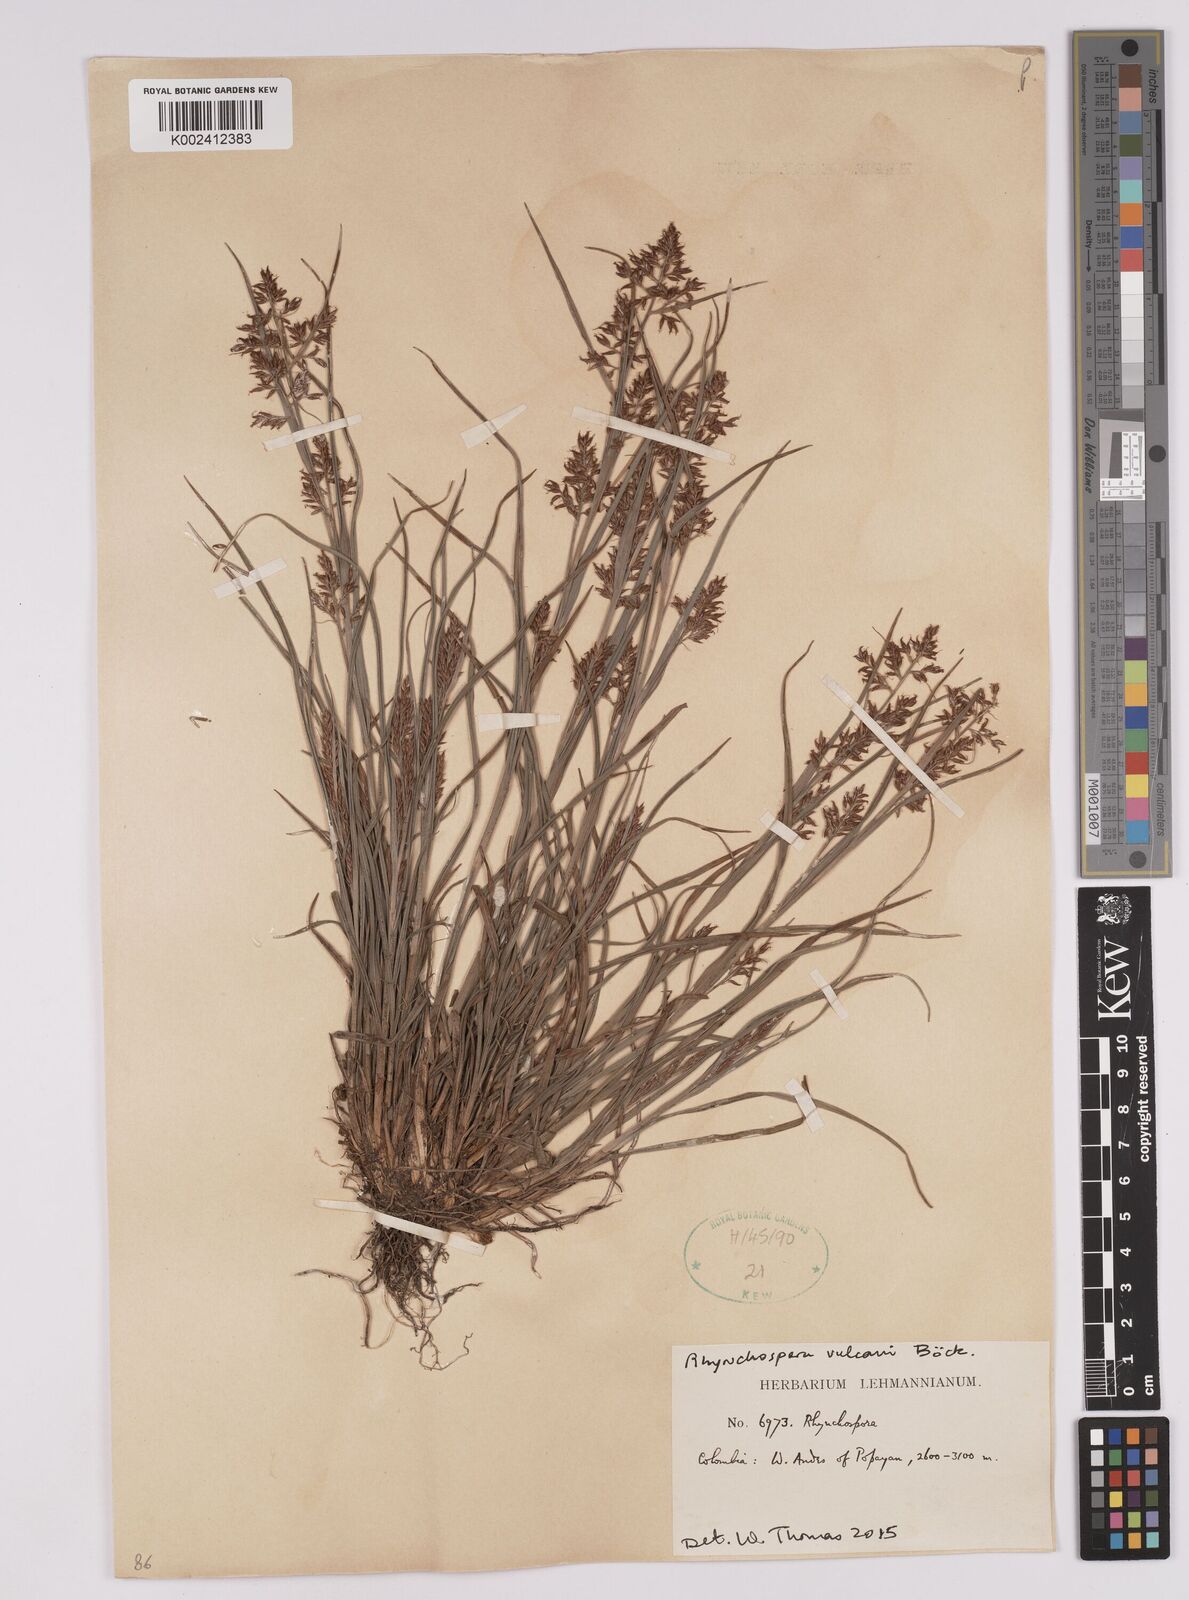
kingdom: Plantae
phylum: Tracheophyta
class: Liliopsida
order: Poales
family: Cyperaceae
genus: Rhynchospora
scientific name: Rhynchospora vulcani
